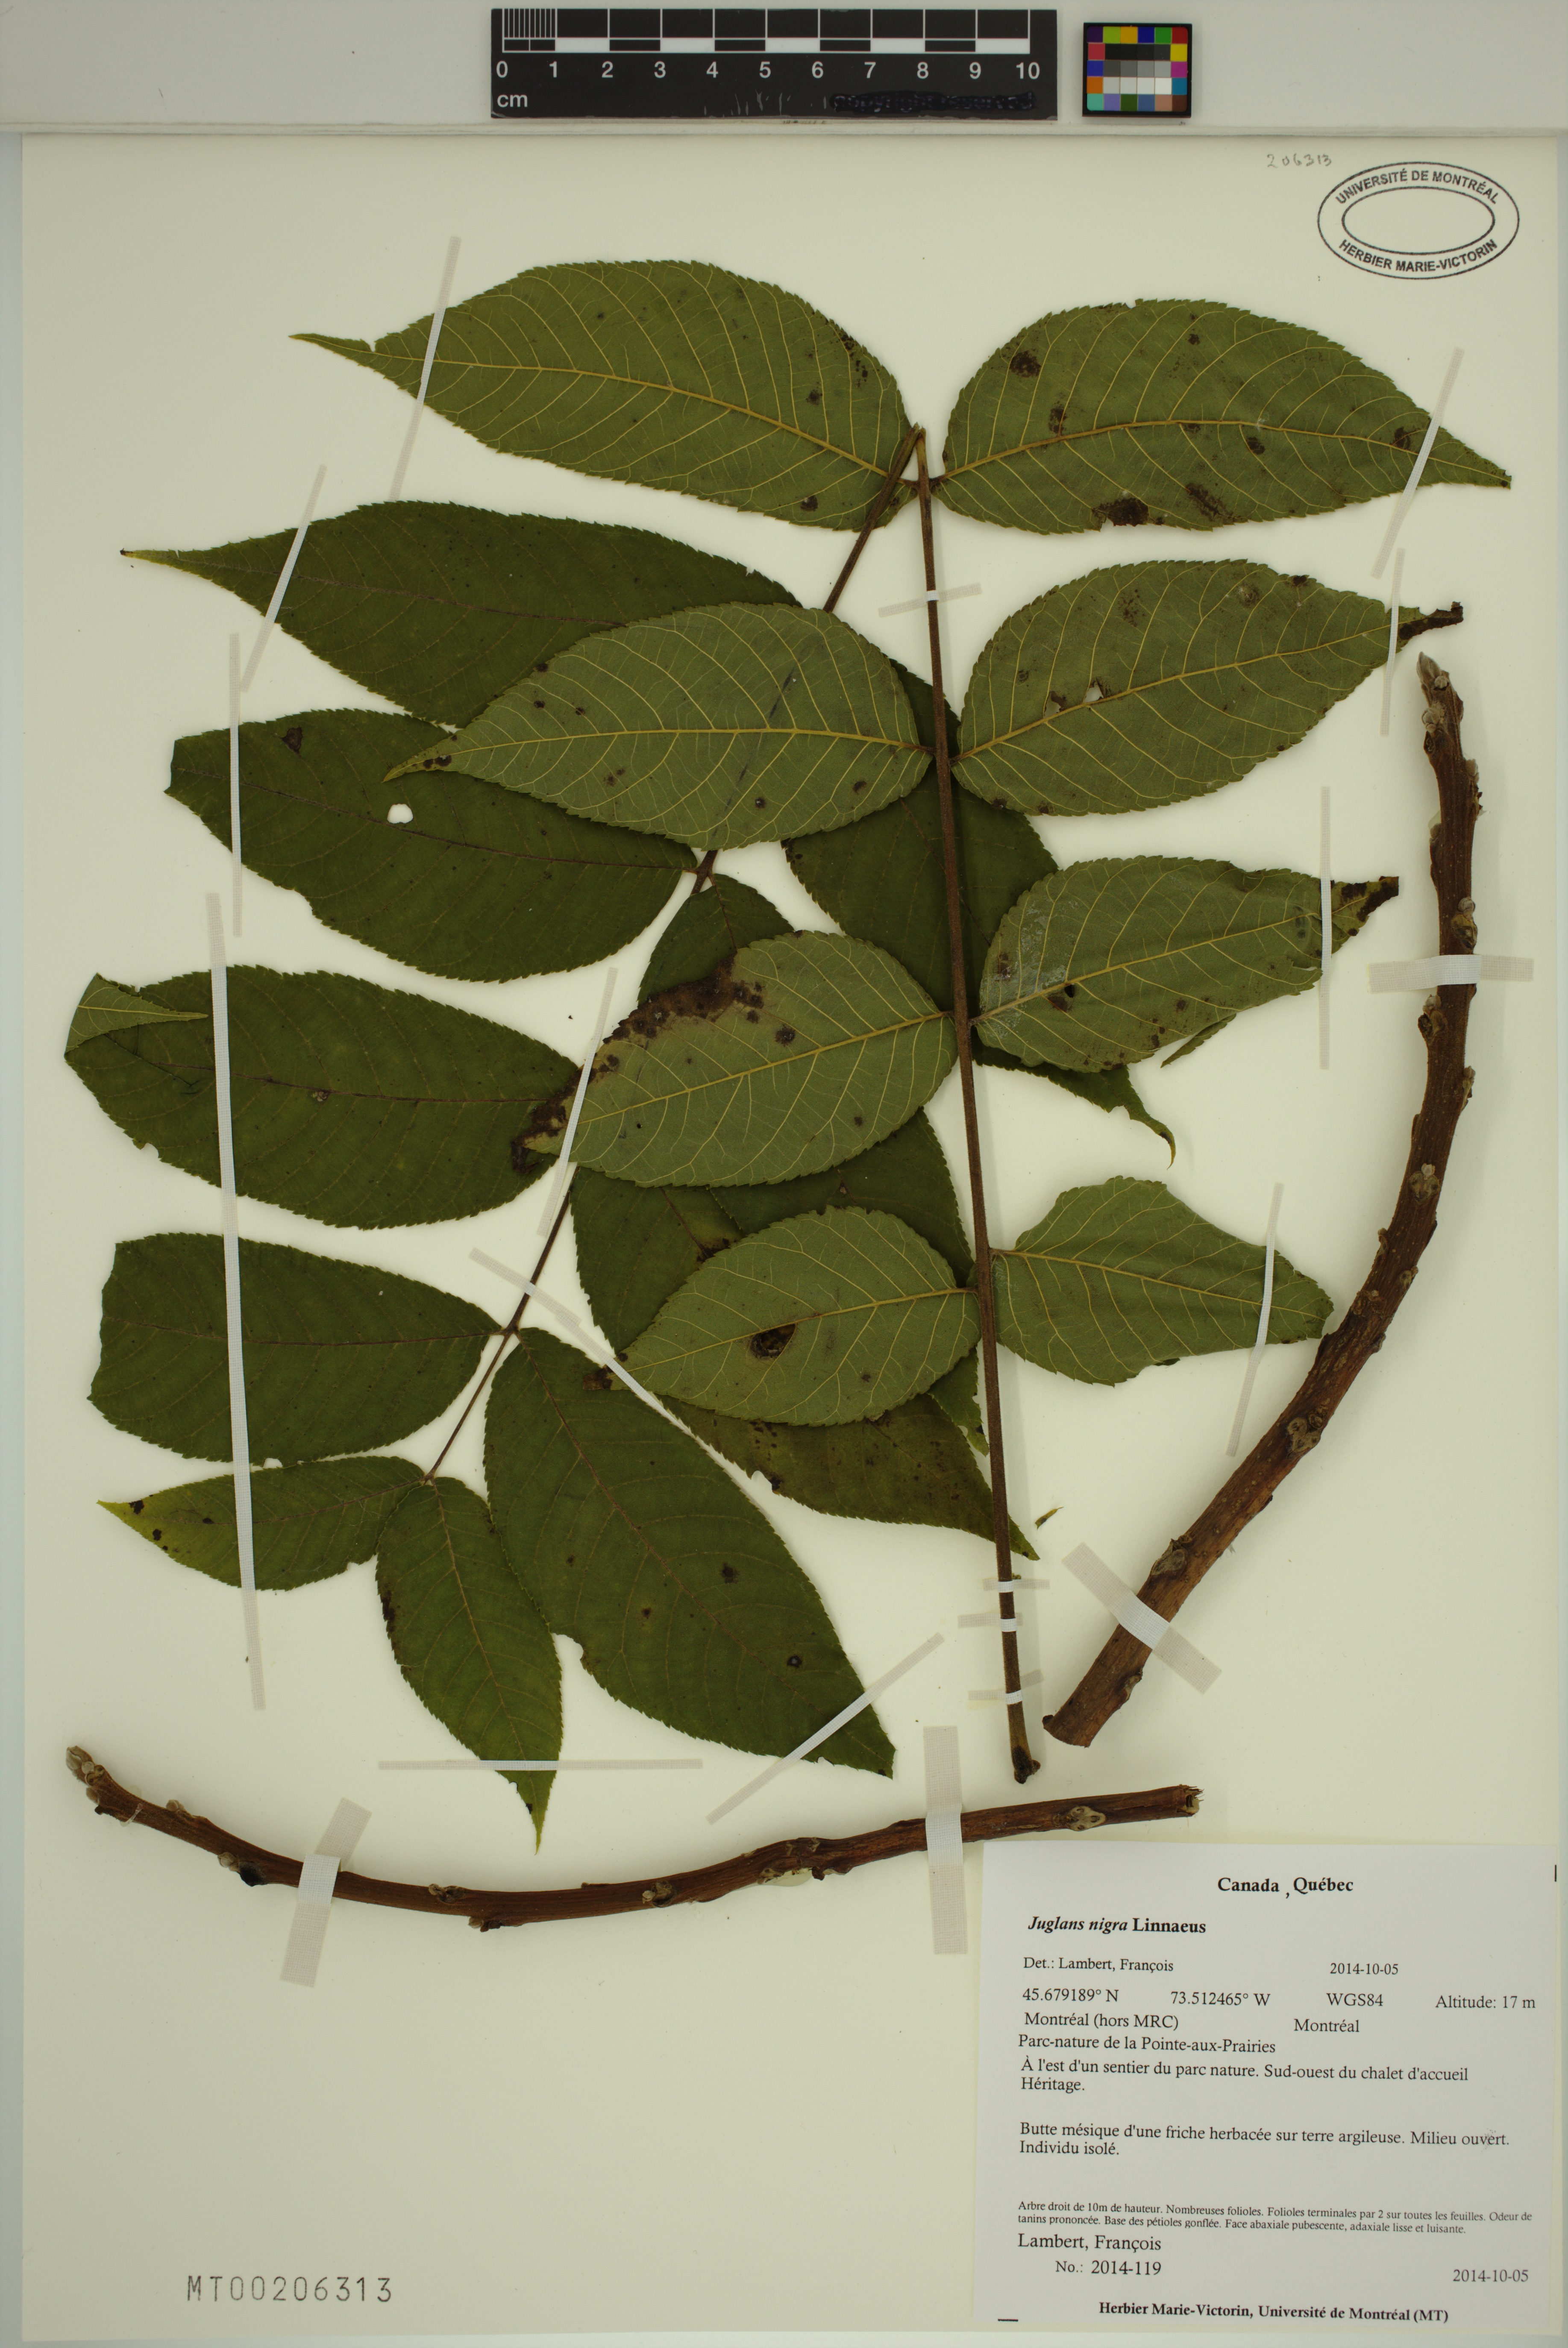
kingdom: Plantae
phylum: Tracheophyta
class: Magnoliopsida
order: Fagales
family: Juglandaceae
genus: Juglans
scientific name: Juglans nigra
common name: Black walnut
